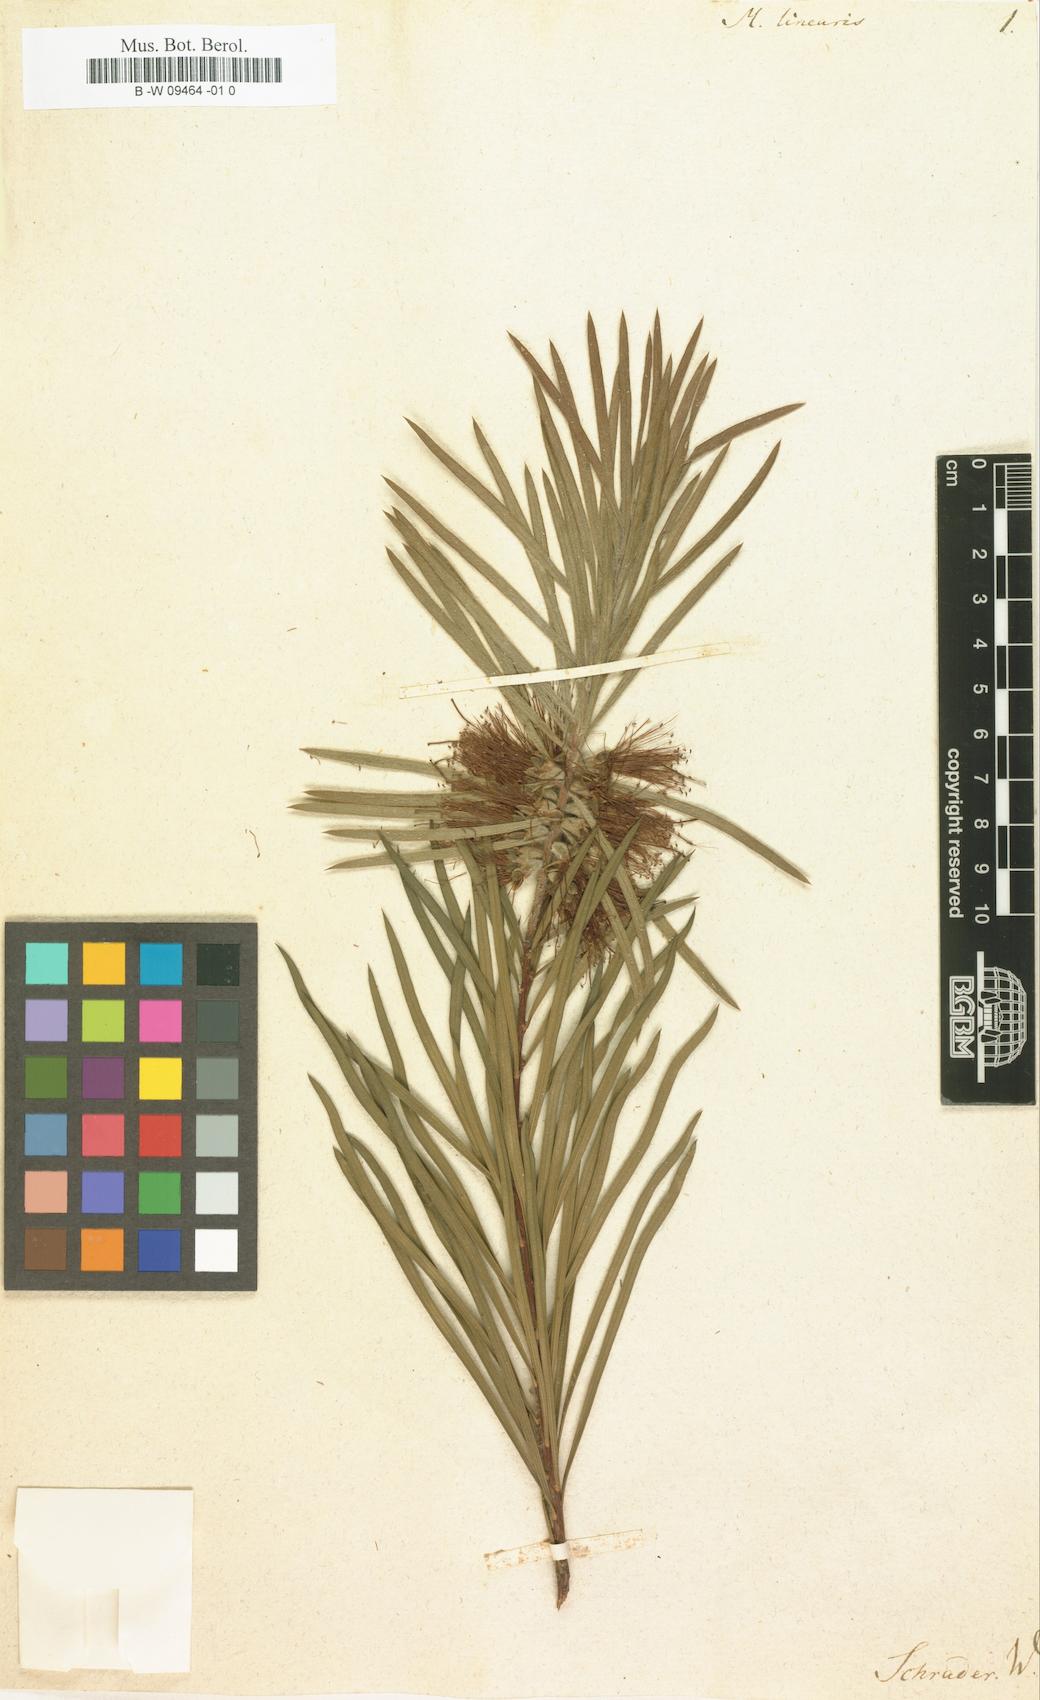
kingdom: Plantae
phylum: Tracheophyta
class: Magnoliopsida
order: Myrtales
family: Myrtaceae
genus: Callistemon
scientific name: Callistemon linearis
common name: Narrow-leaf bottlebrush
